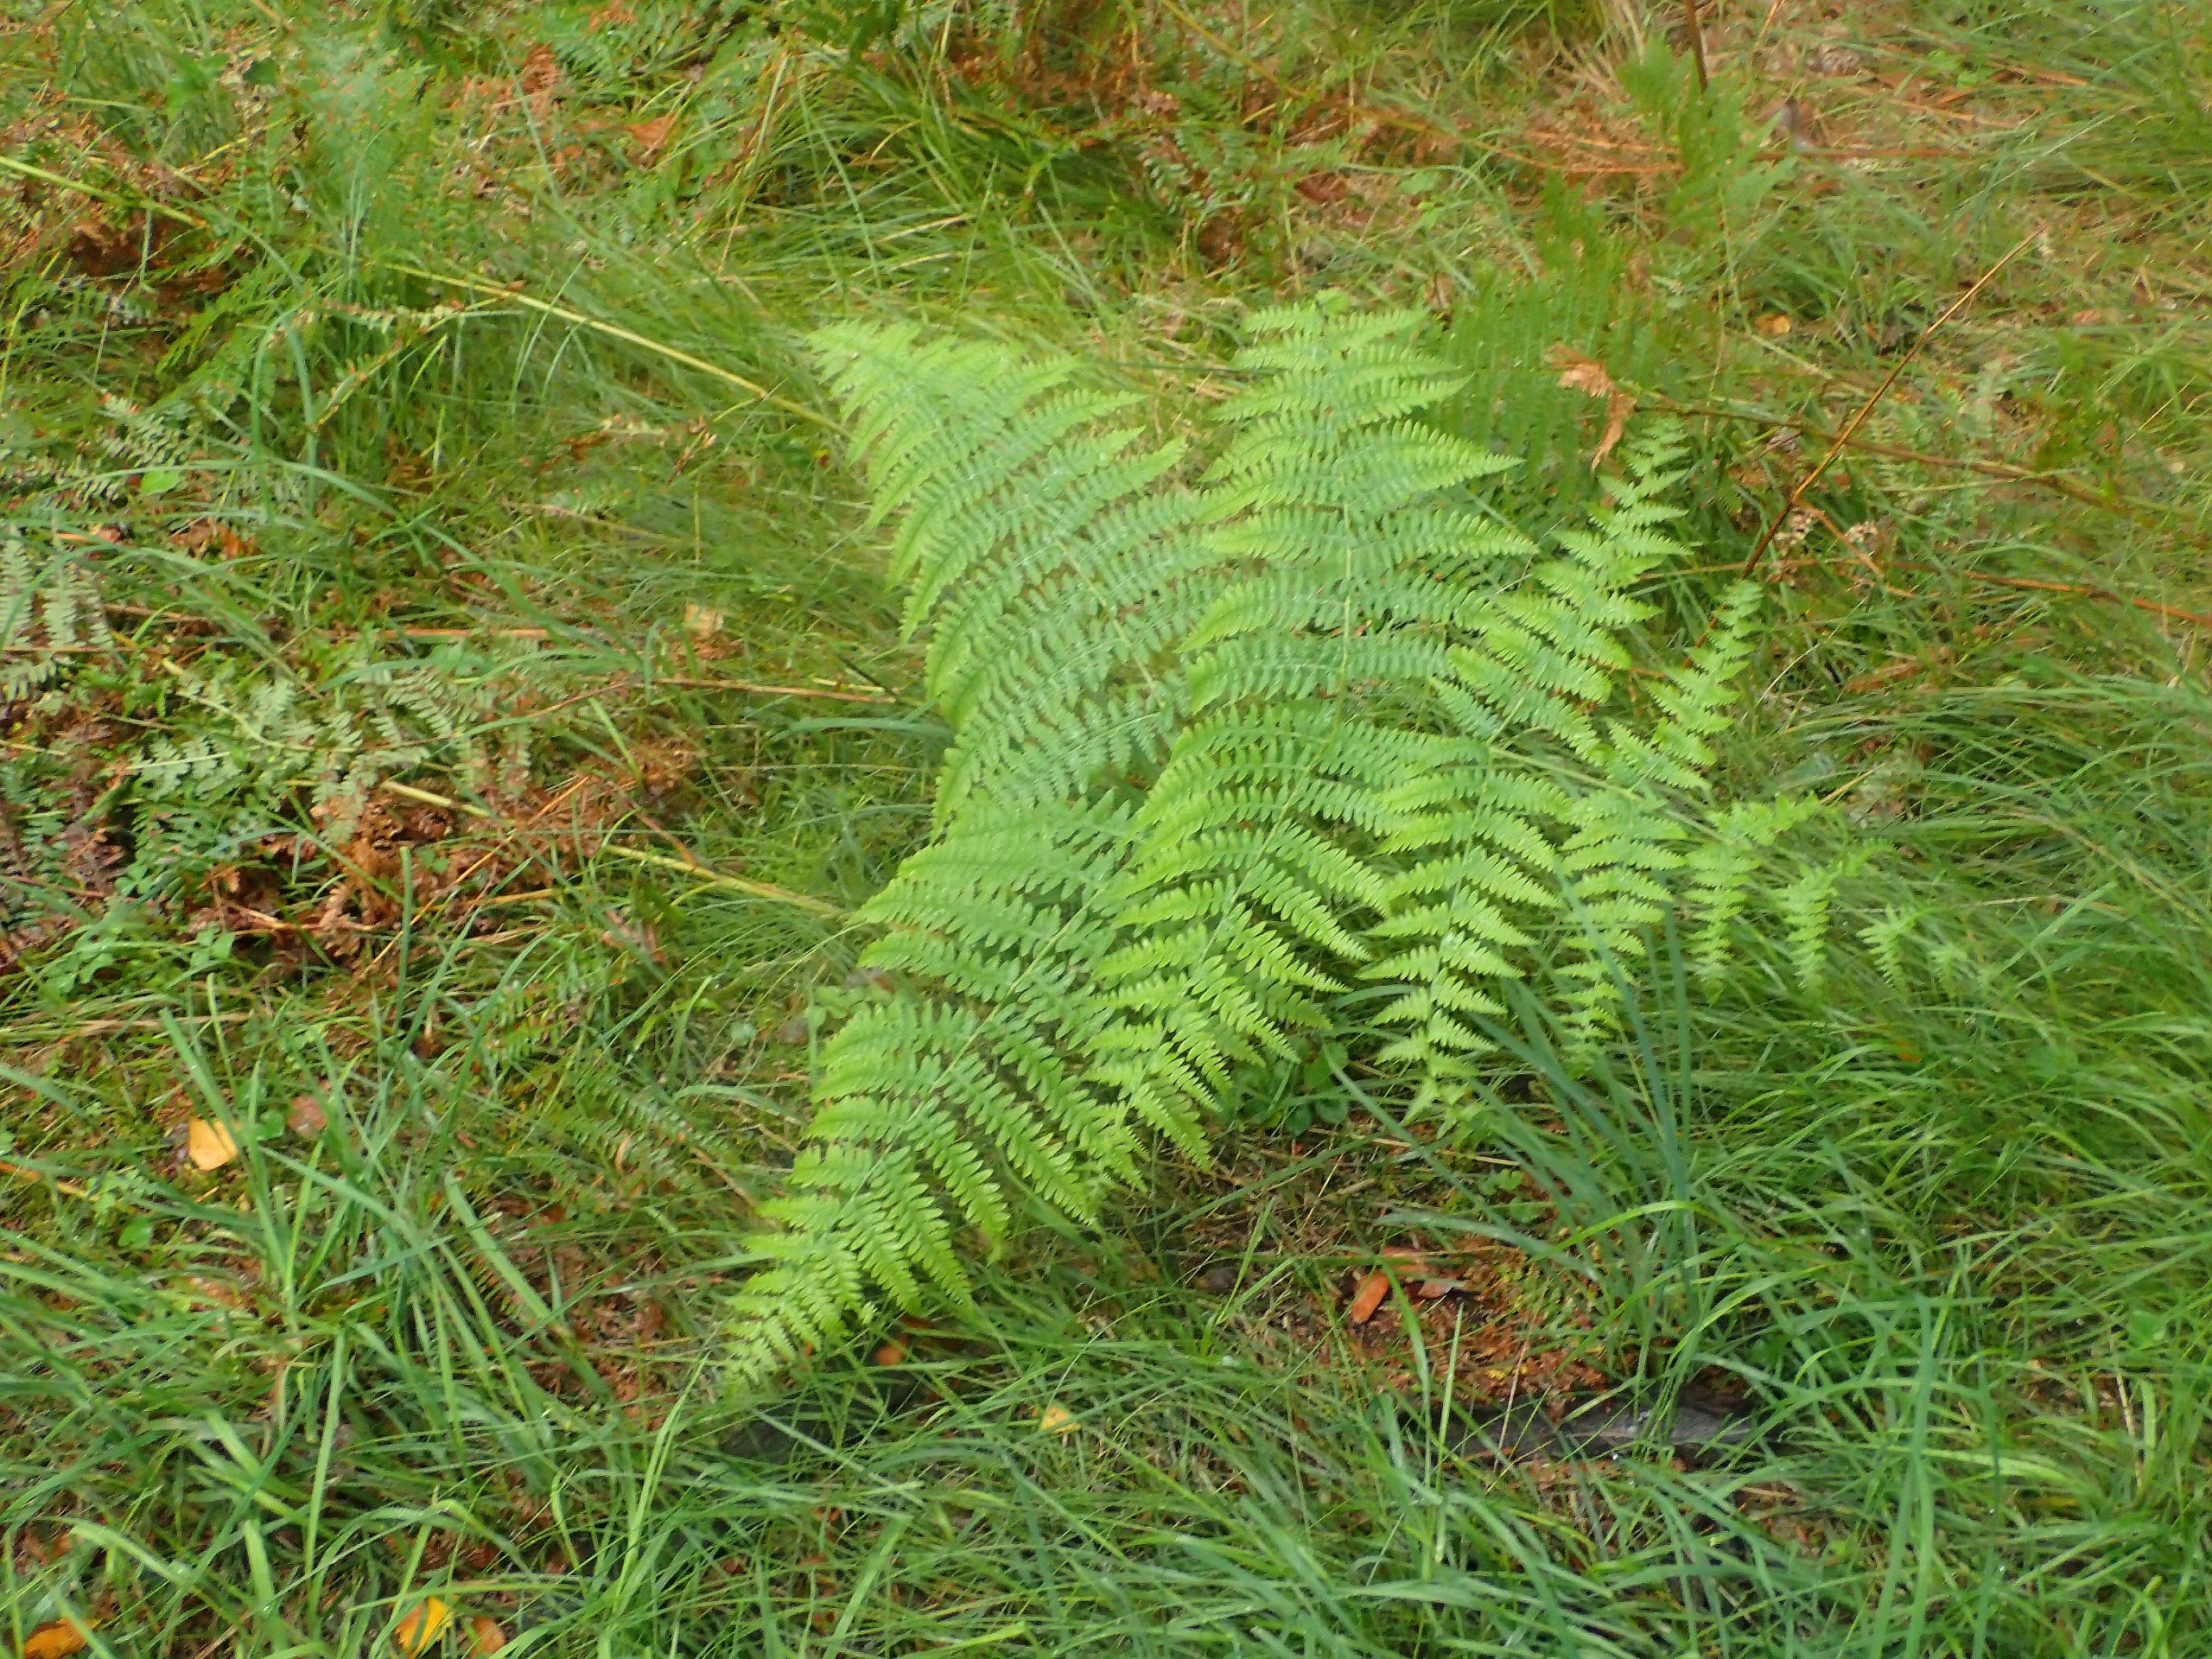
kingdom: Plantae
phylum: Tracheophyta
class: Polypodiopsida
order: Polypodiales
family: Dennstaedtiaceae
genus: Pteridium
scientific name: Pteridium aquilinum
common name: Ørnebregne
